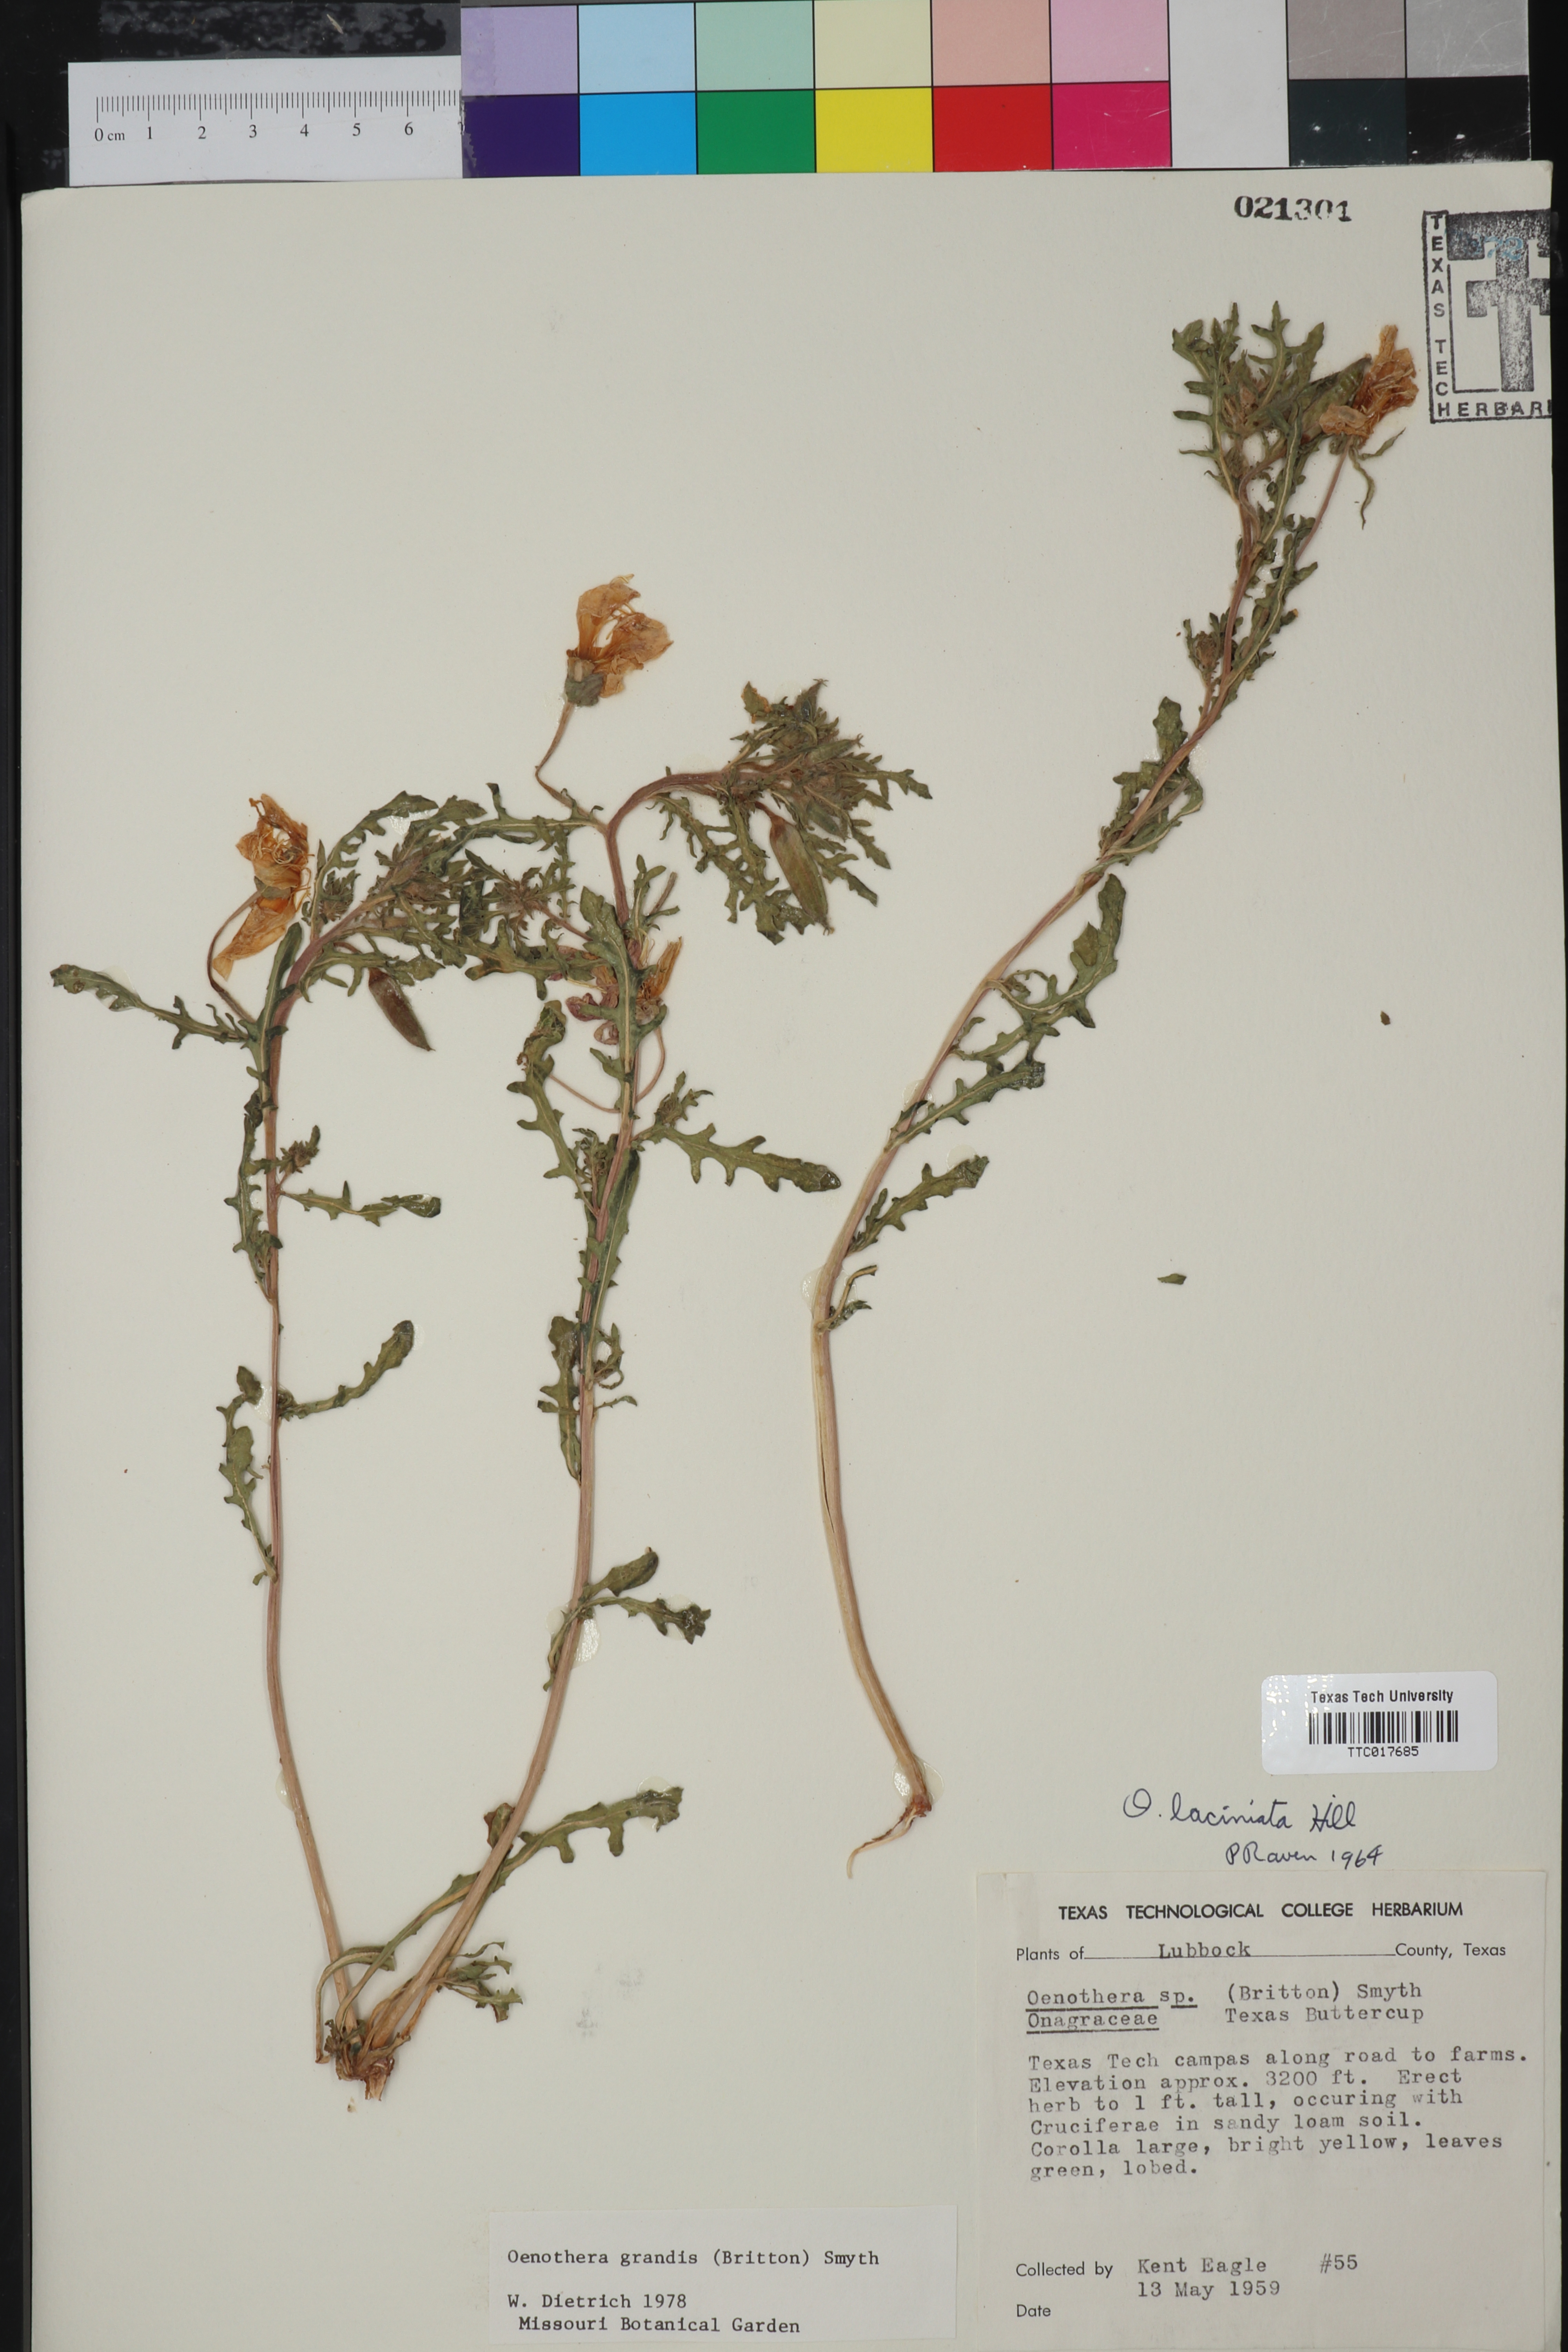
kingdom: Plantae
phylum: Tracheophyta
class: Magnoliopsida
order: Myrtales
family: Onagraceae
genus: Oenothera
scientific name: Oenothera grandis
